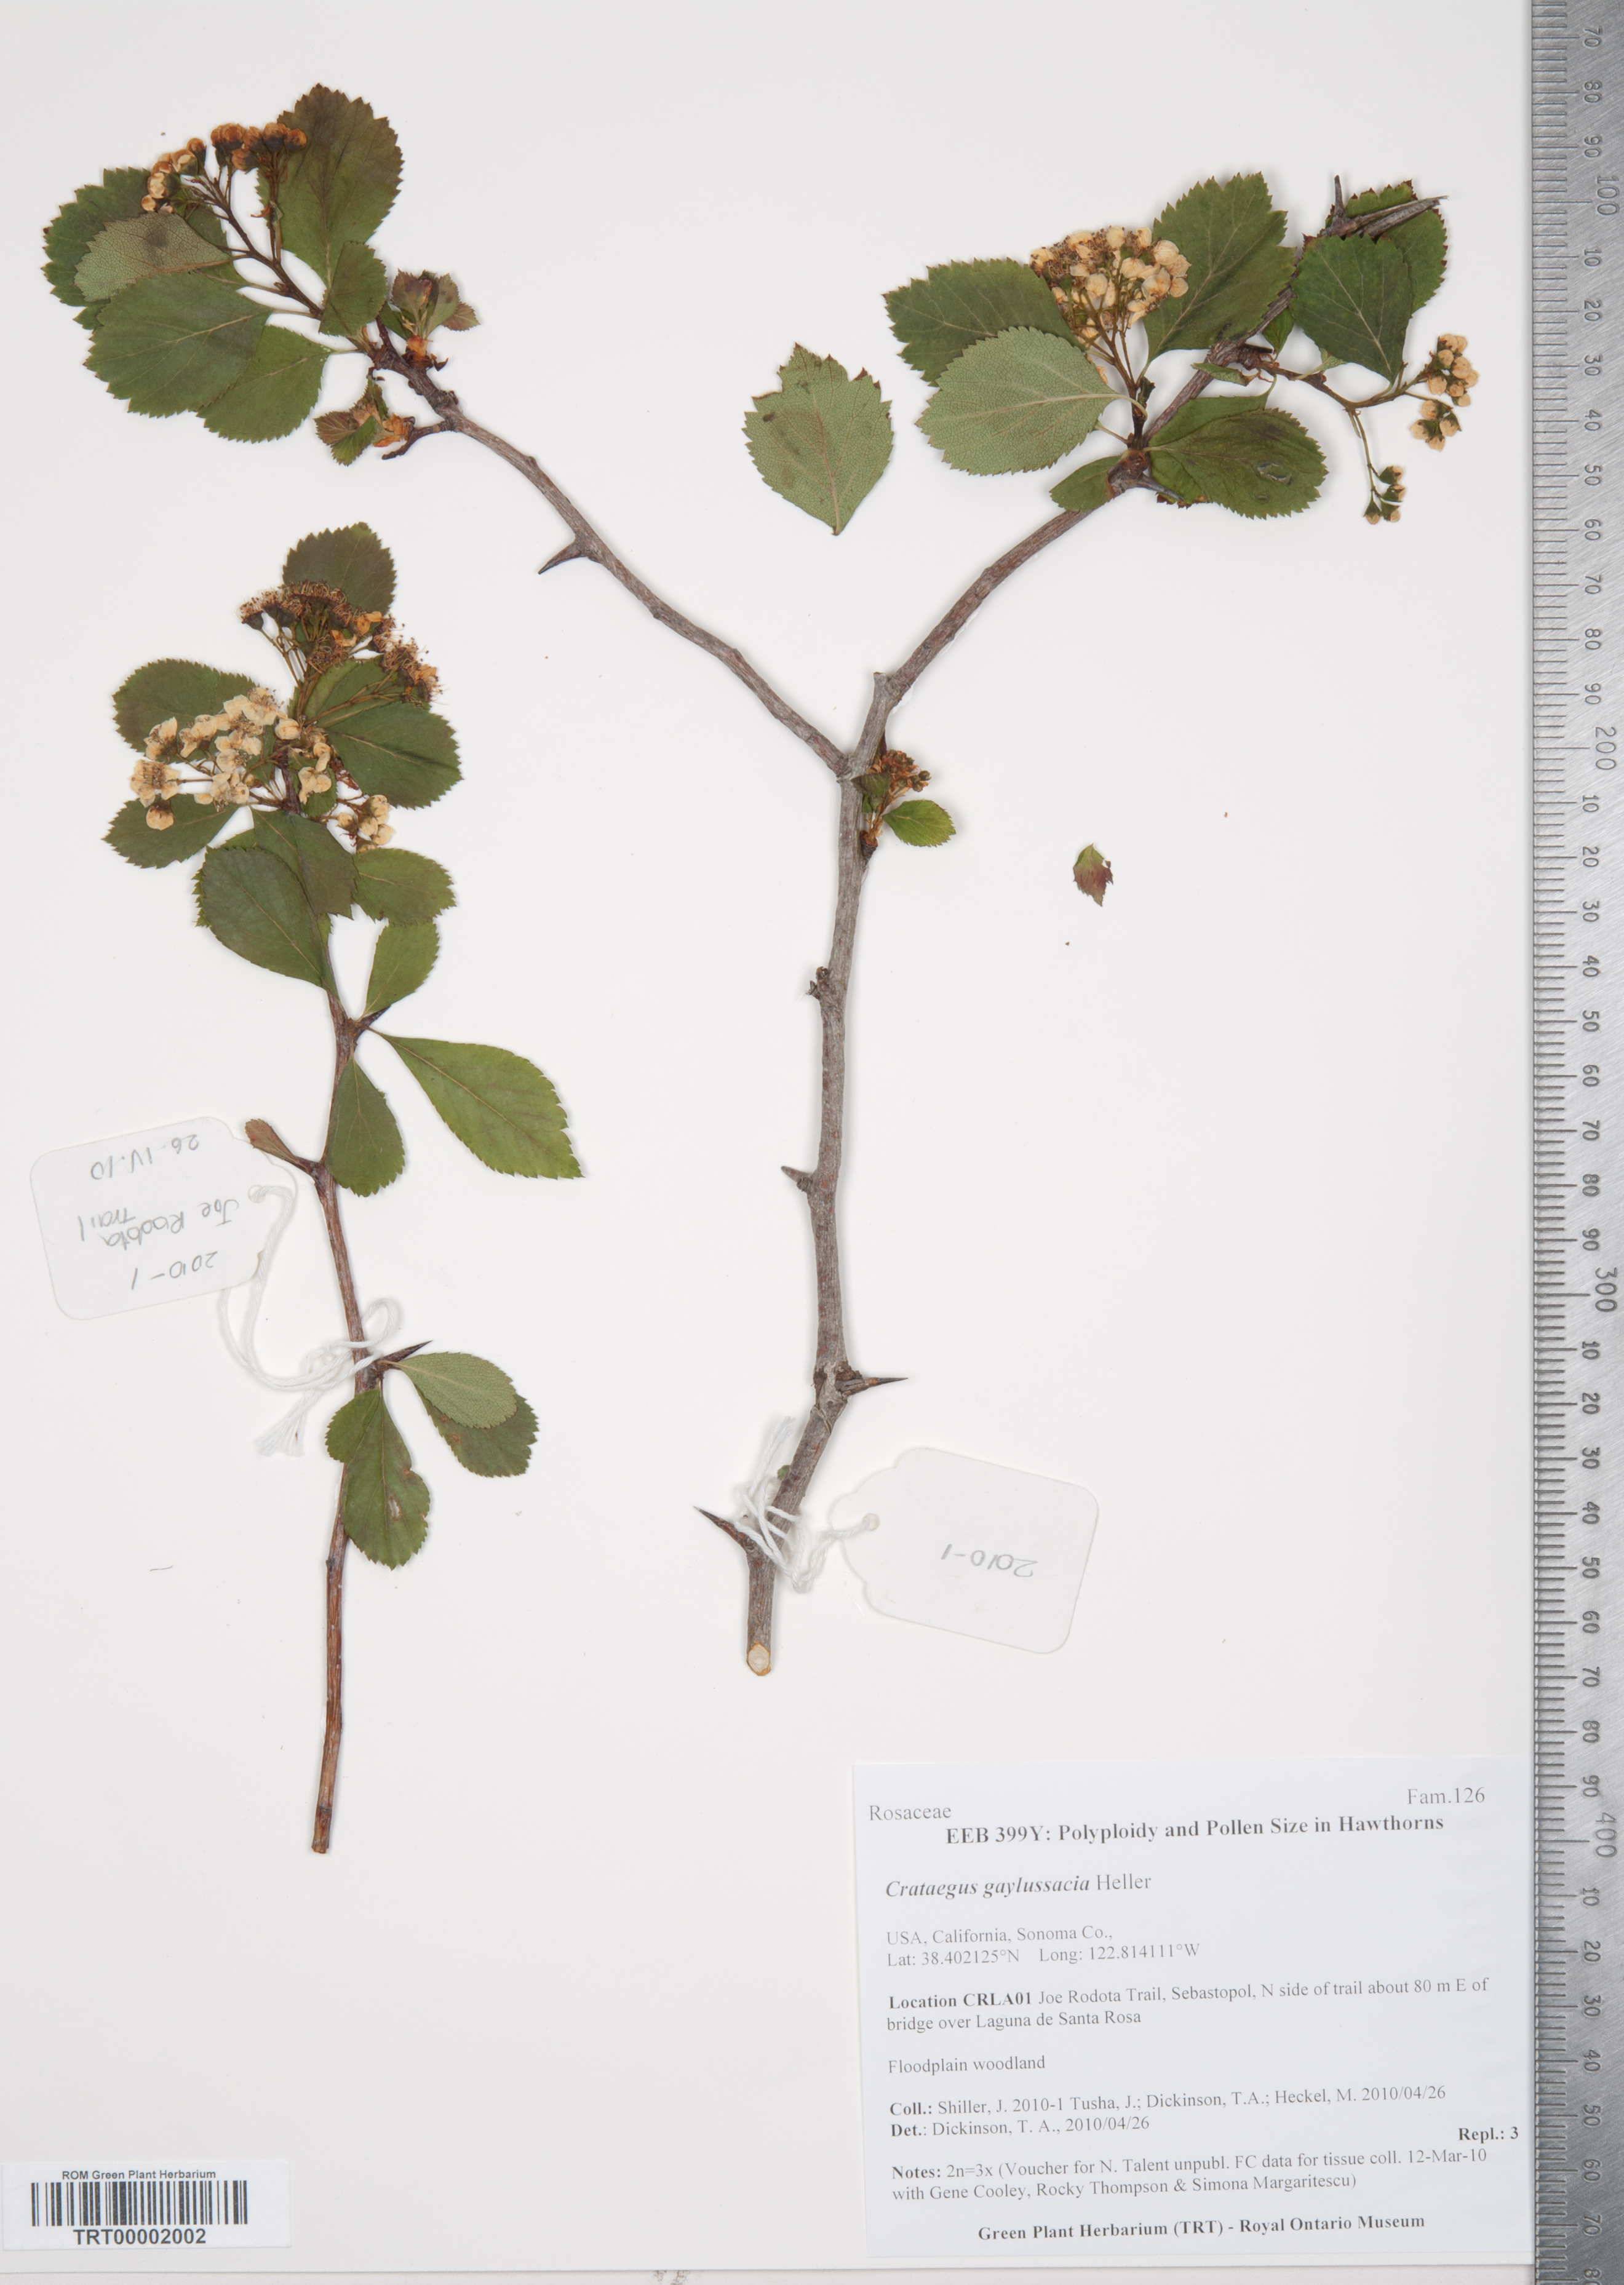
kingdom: Plantae
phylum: Tracheophyta
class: Magnoliopsida
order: Rosales
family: Rosaceae
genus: Crataegus
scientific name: Crataegus gaylussacia
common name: Huckleberry hawthorn
